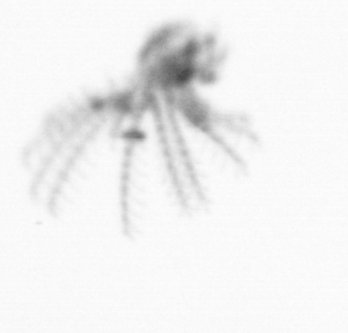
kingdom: Animalia
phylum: Arthropoda
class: Maxillopoda
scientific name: Maxillopoda
